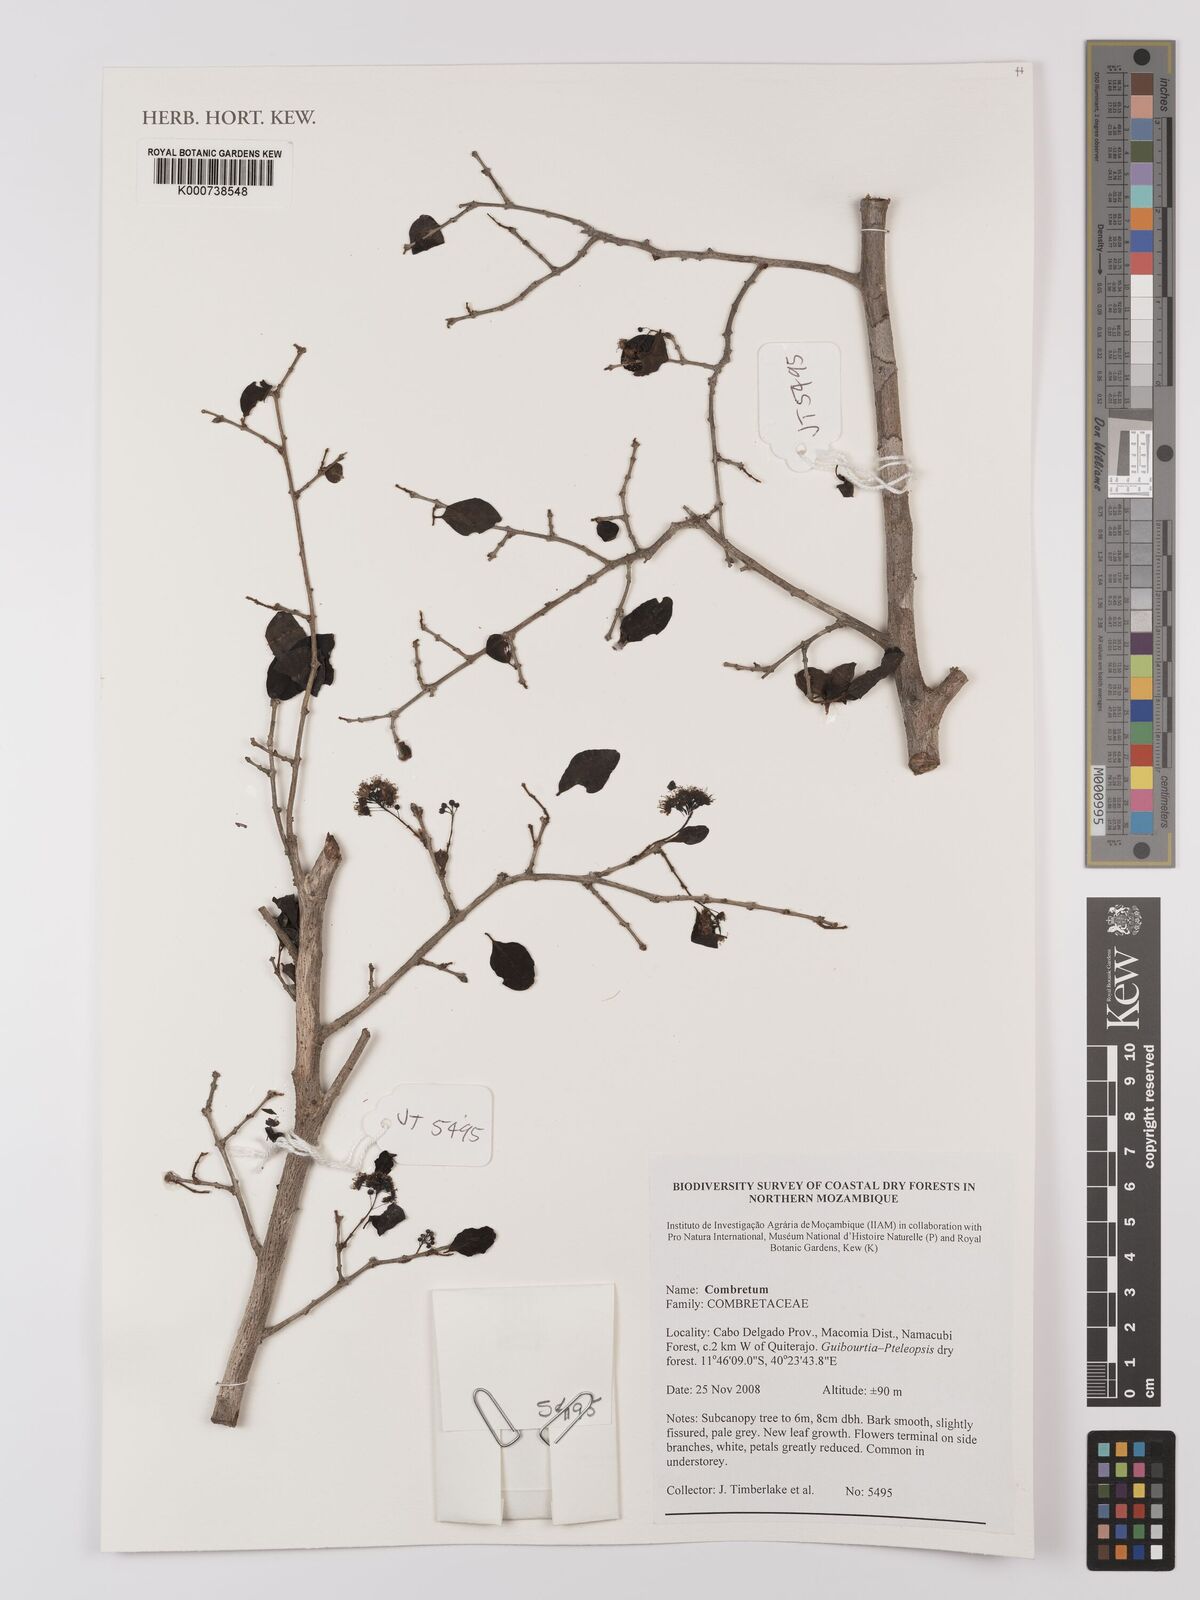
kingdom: Plantae
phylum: Tracheophyta
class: Magnoliopsida
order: Myrtales
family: Combretaceae
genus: Combretum
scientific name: Combretum
